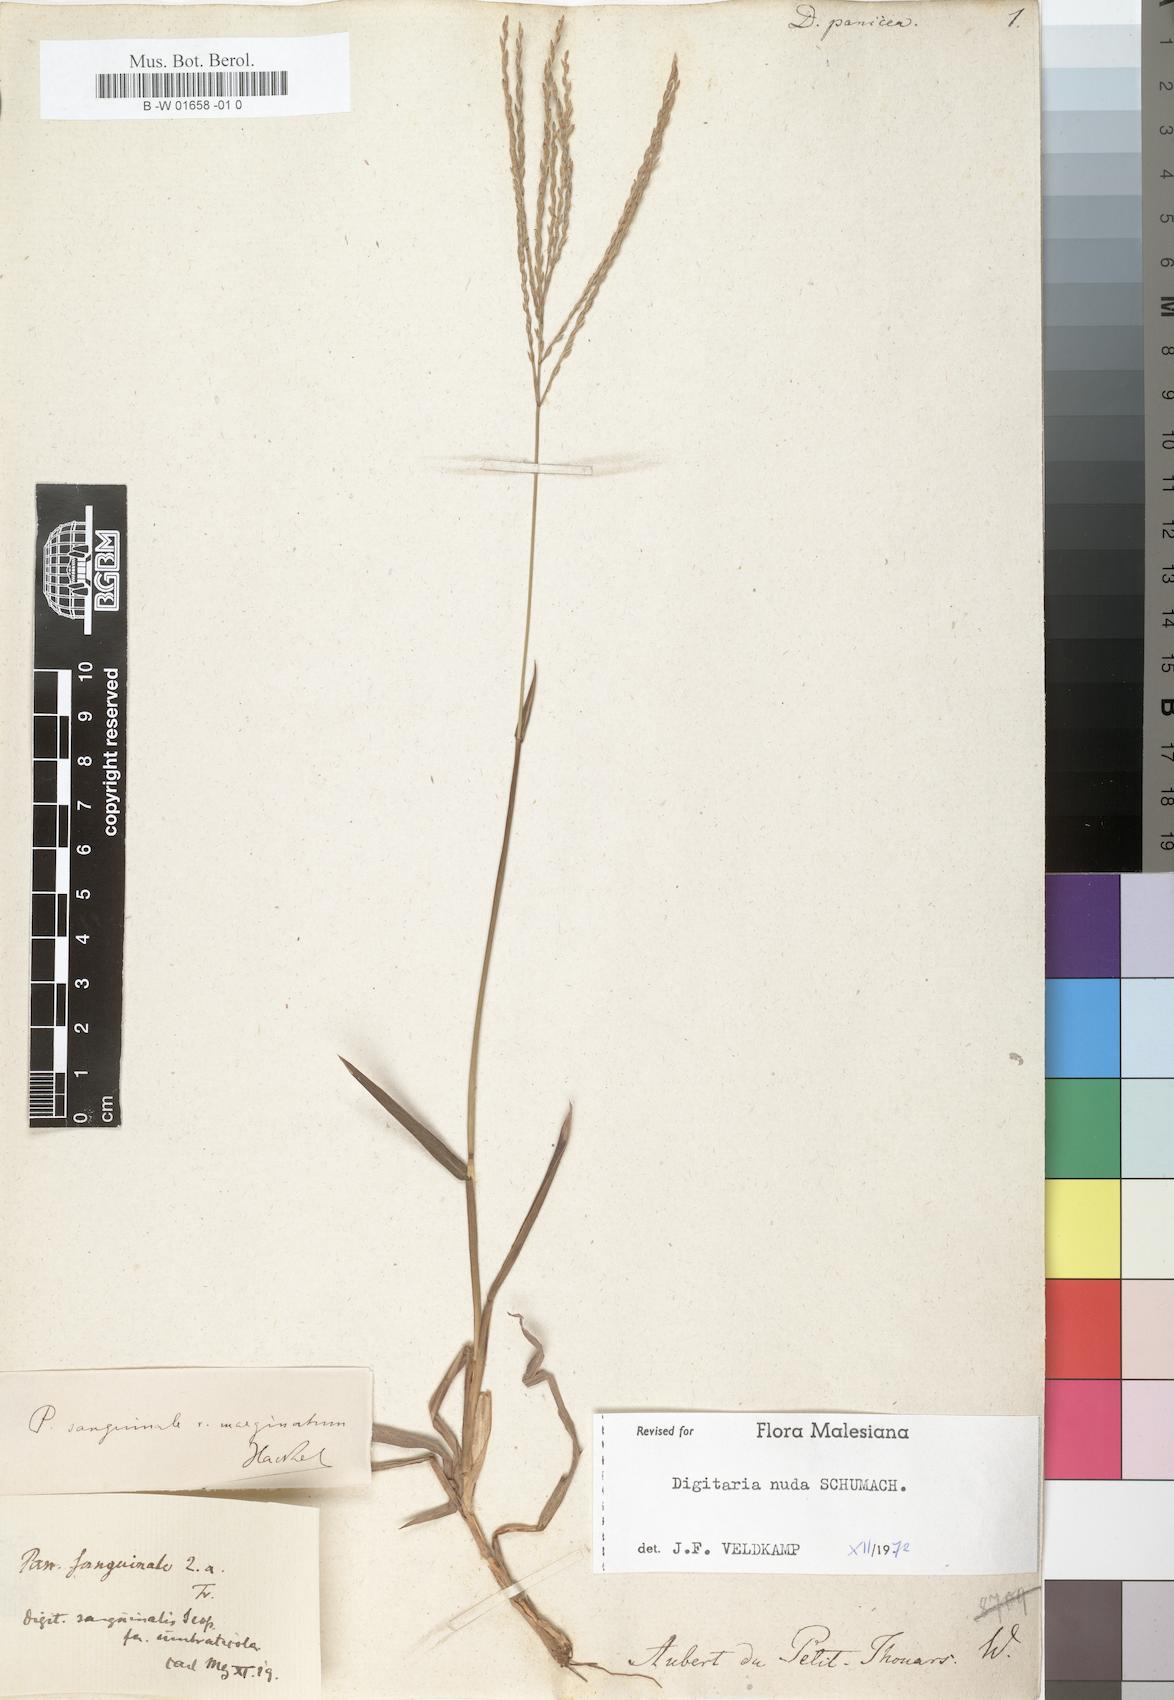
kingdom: Plantae
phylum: Tracheophyta
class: Liliopsida
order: Poales
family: Poaceae
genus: Digitaria
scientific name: Digitaria panicea
